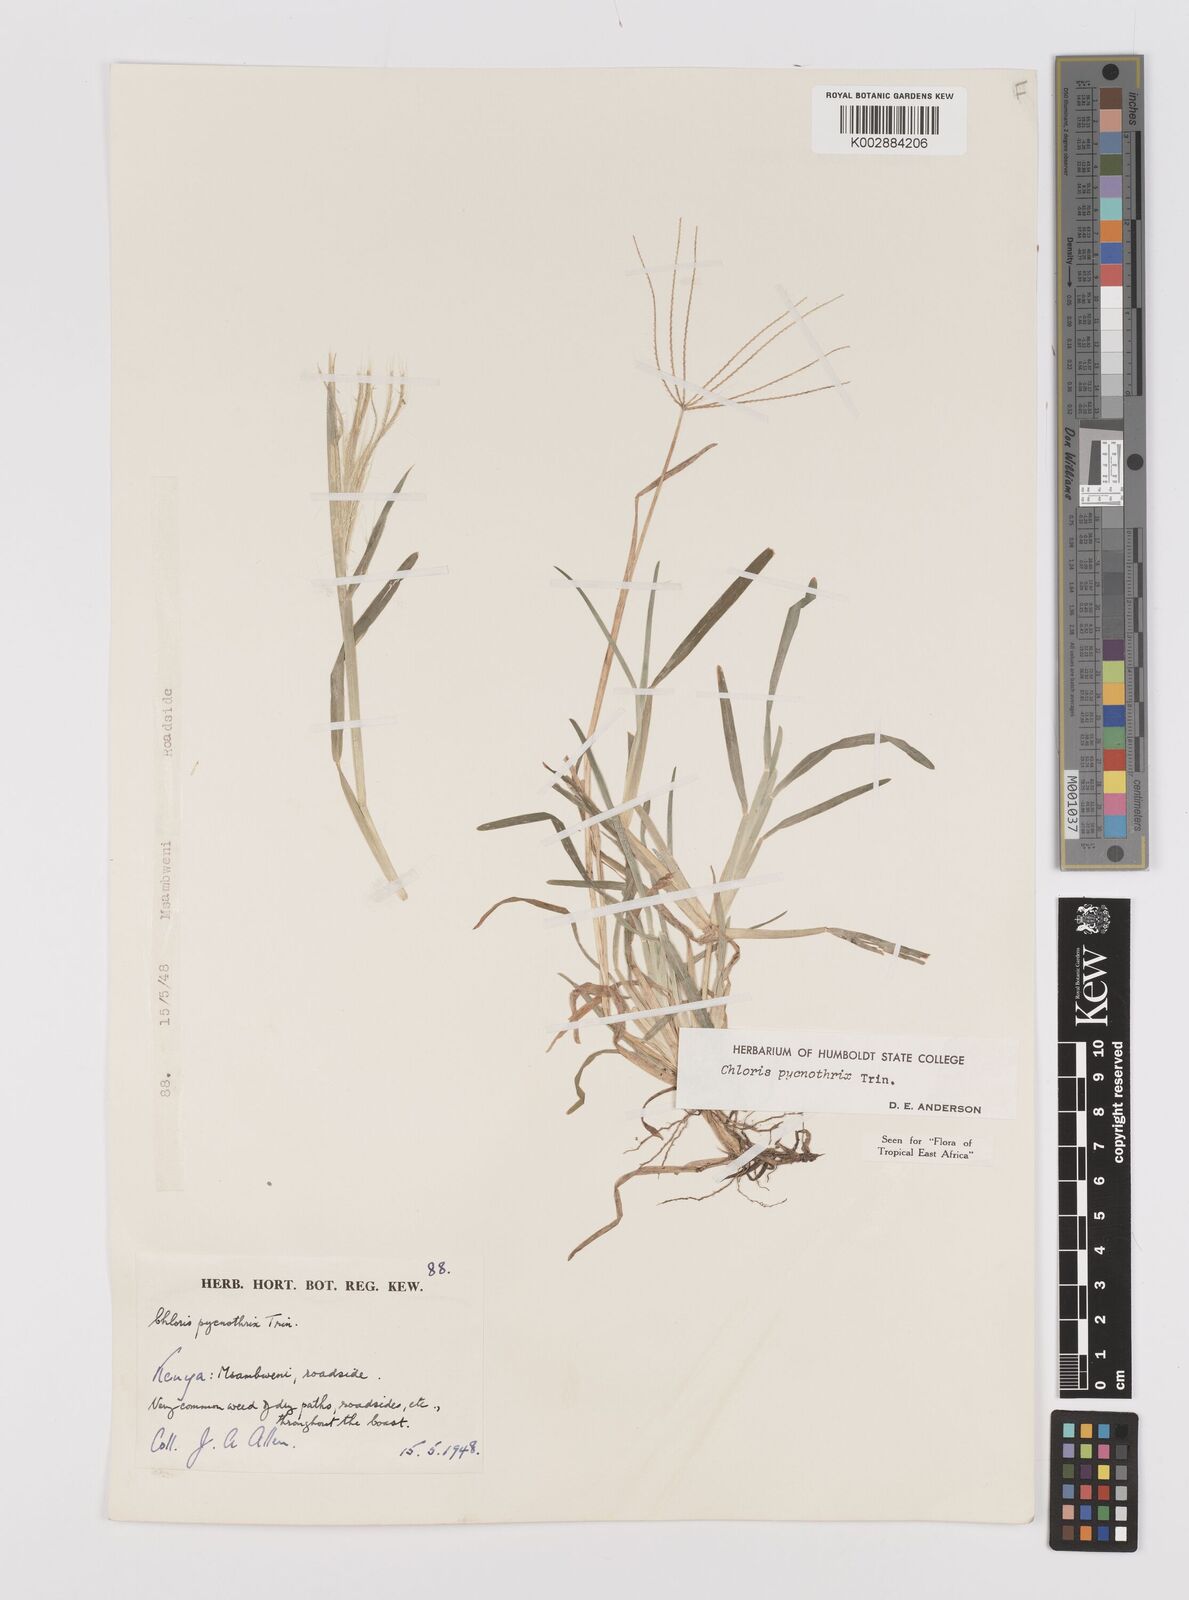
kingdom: Plantae
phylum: Tracheophyta
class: Liliopsida
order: Poales
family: Poaceae
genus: Chloris
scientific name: Chloris pycnothrix
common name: Spiderweb chloris
